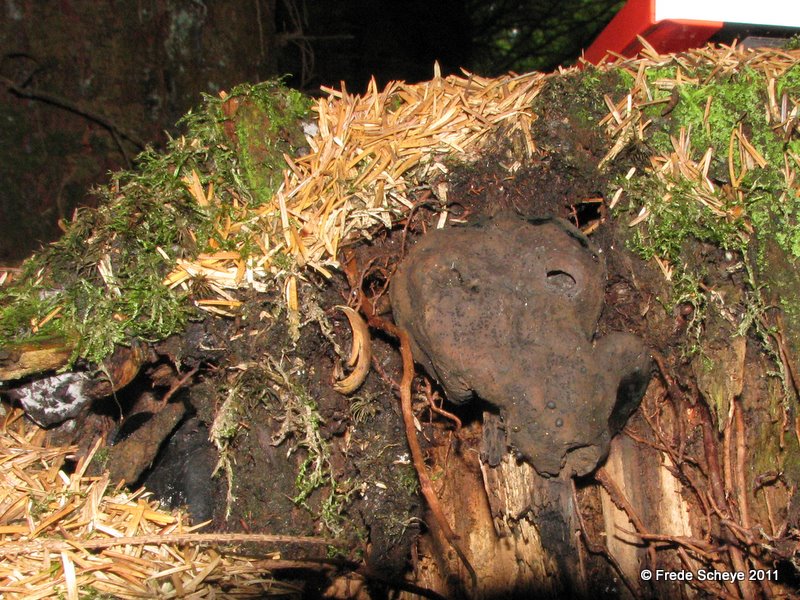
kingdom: Fungi
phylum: Ascomycota
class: Sordariomycetes
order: Boliniales
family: Boliniaceae
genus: Camarops
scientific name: Camarops tubulina
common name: knudret kulsnegl
